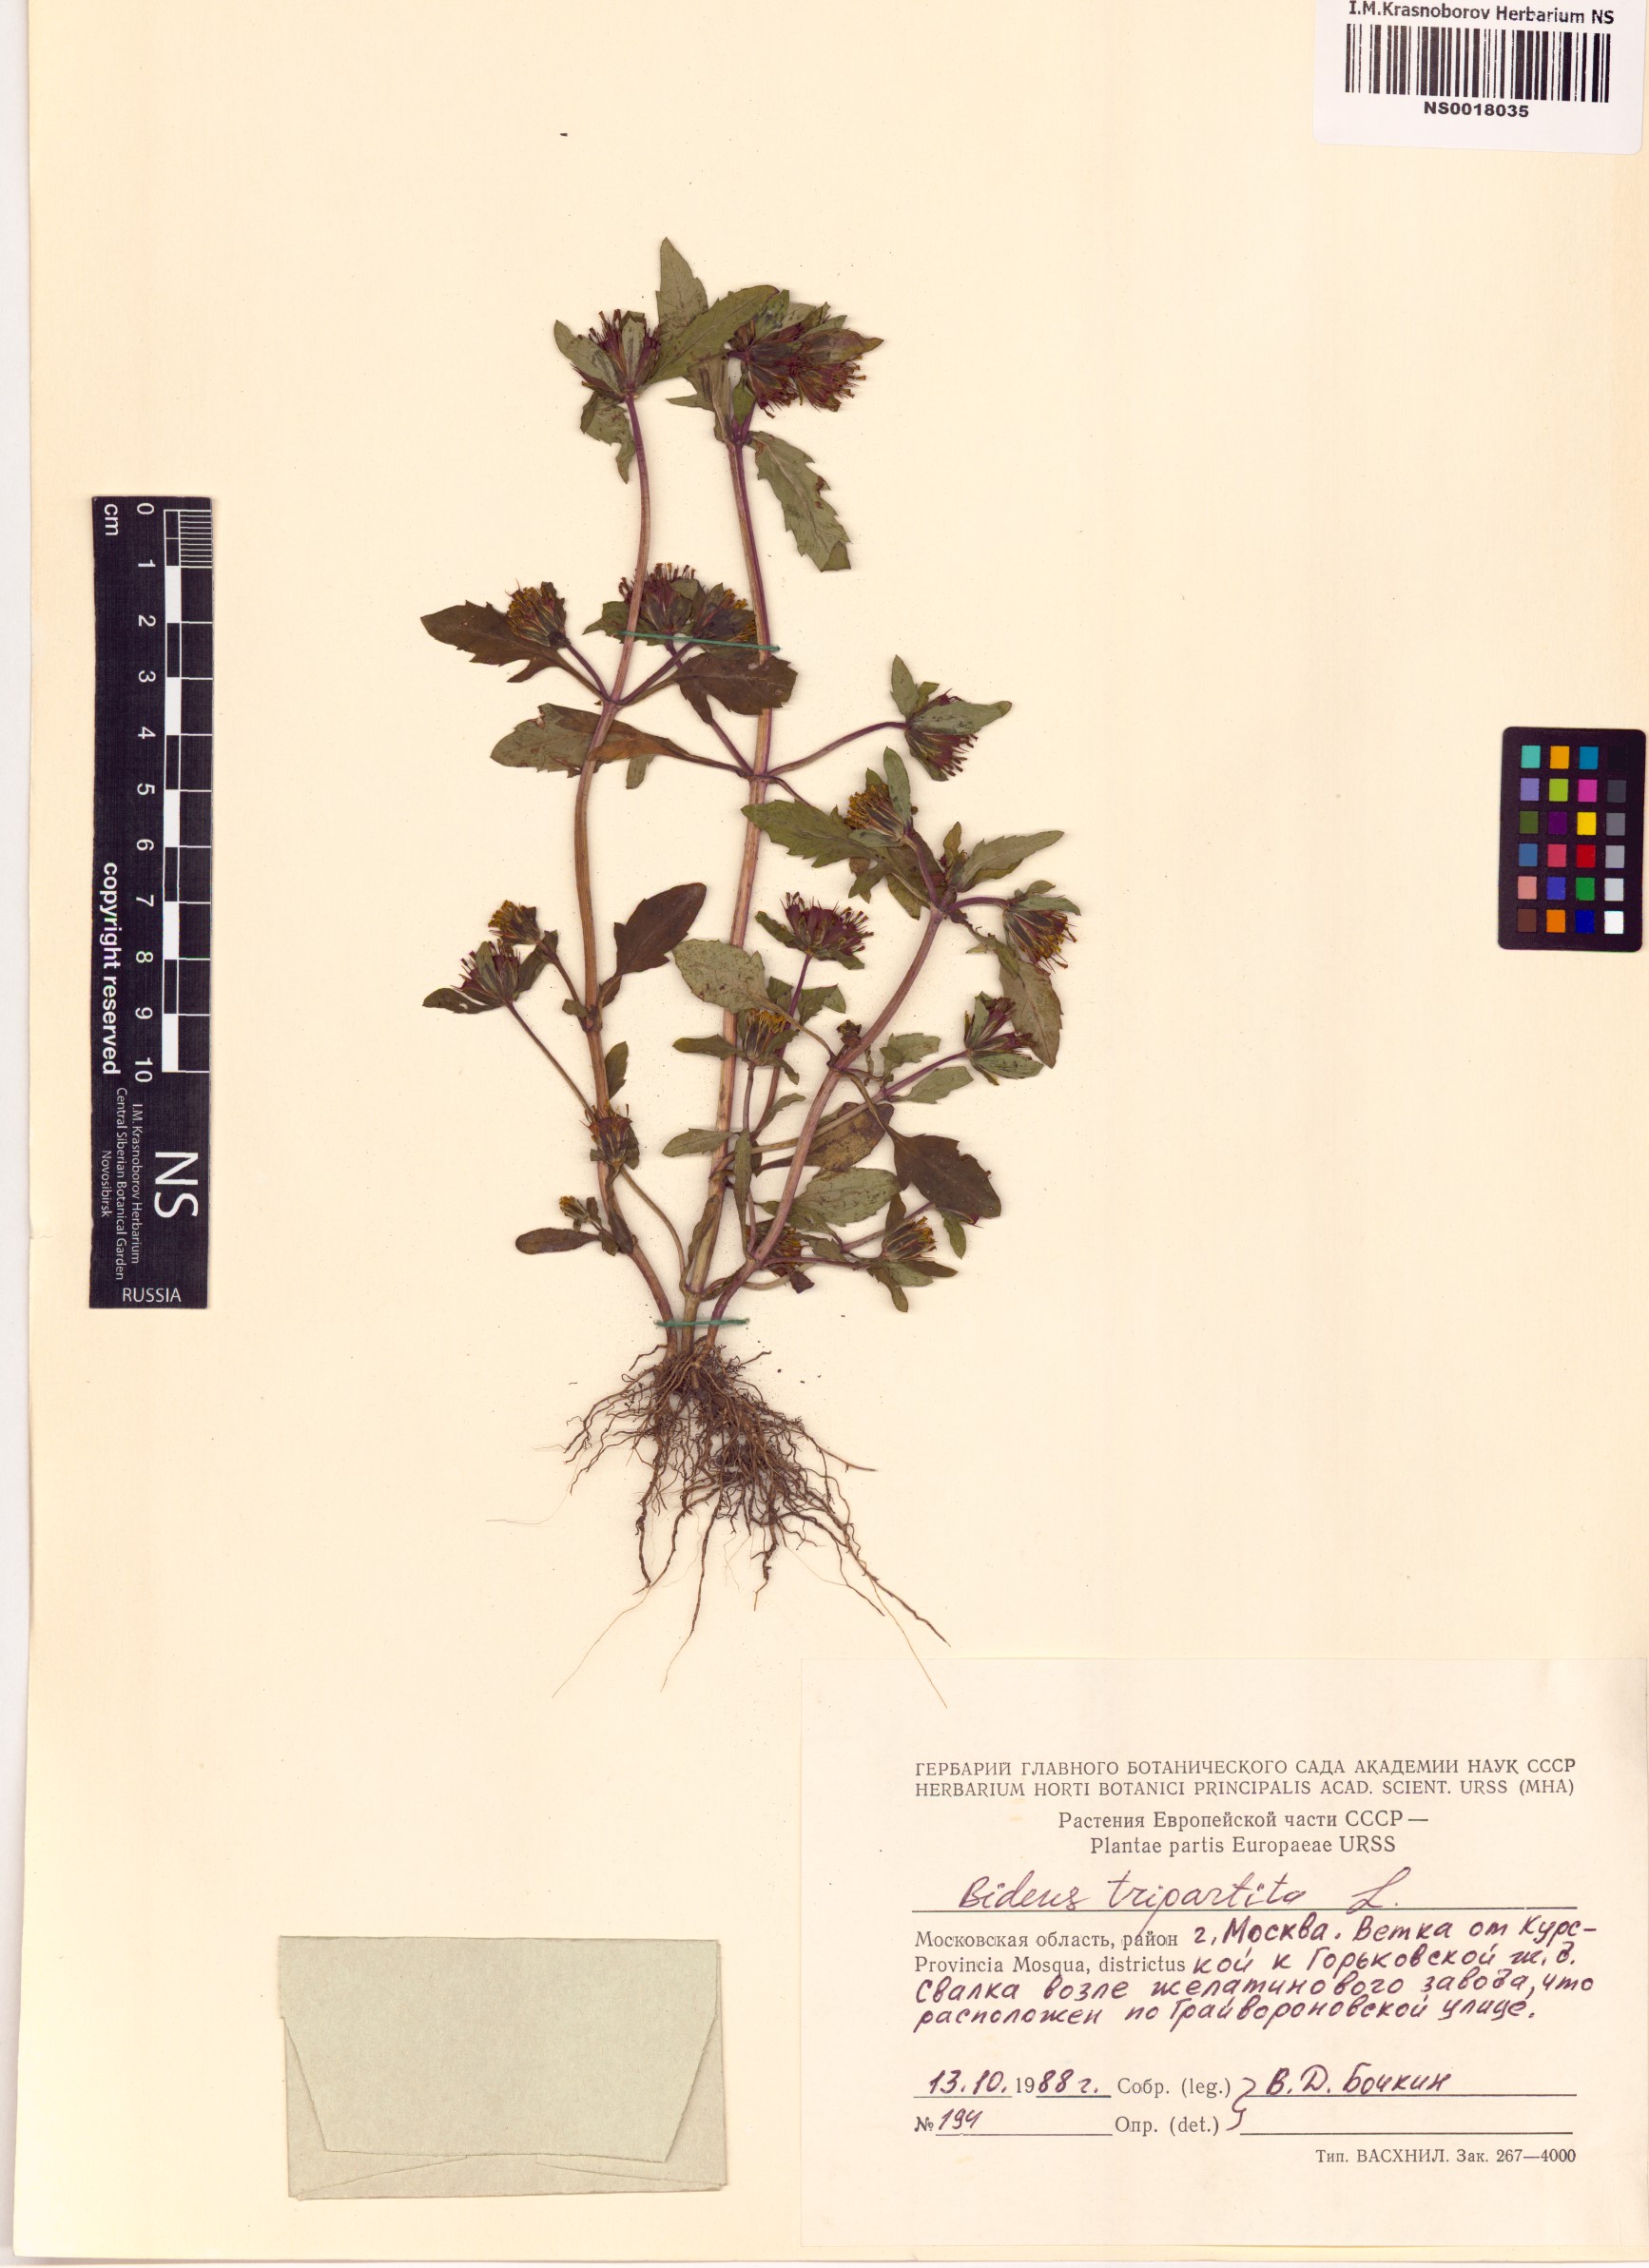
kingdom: Plantae
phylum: Tracheophyta
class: Magnoliopsida
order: Asterales
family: Asteraceae
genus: Bidens
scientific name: Bidens tripartita
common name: Trifid bur-marigold
